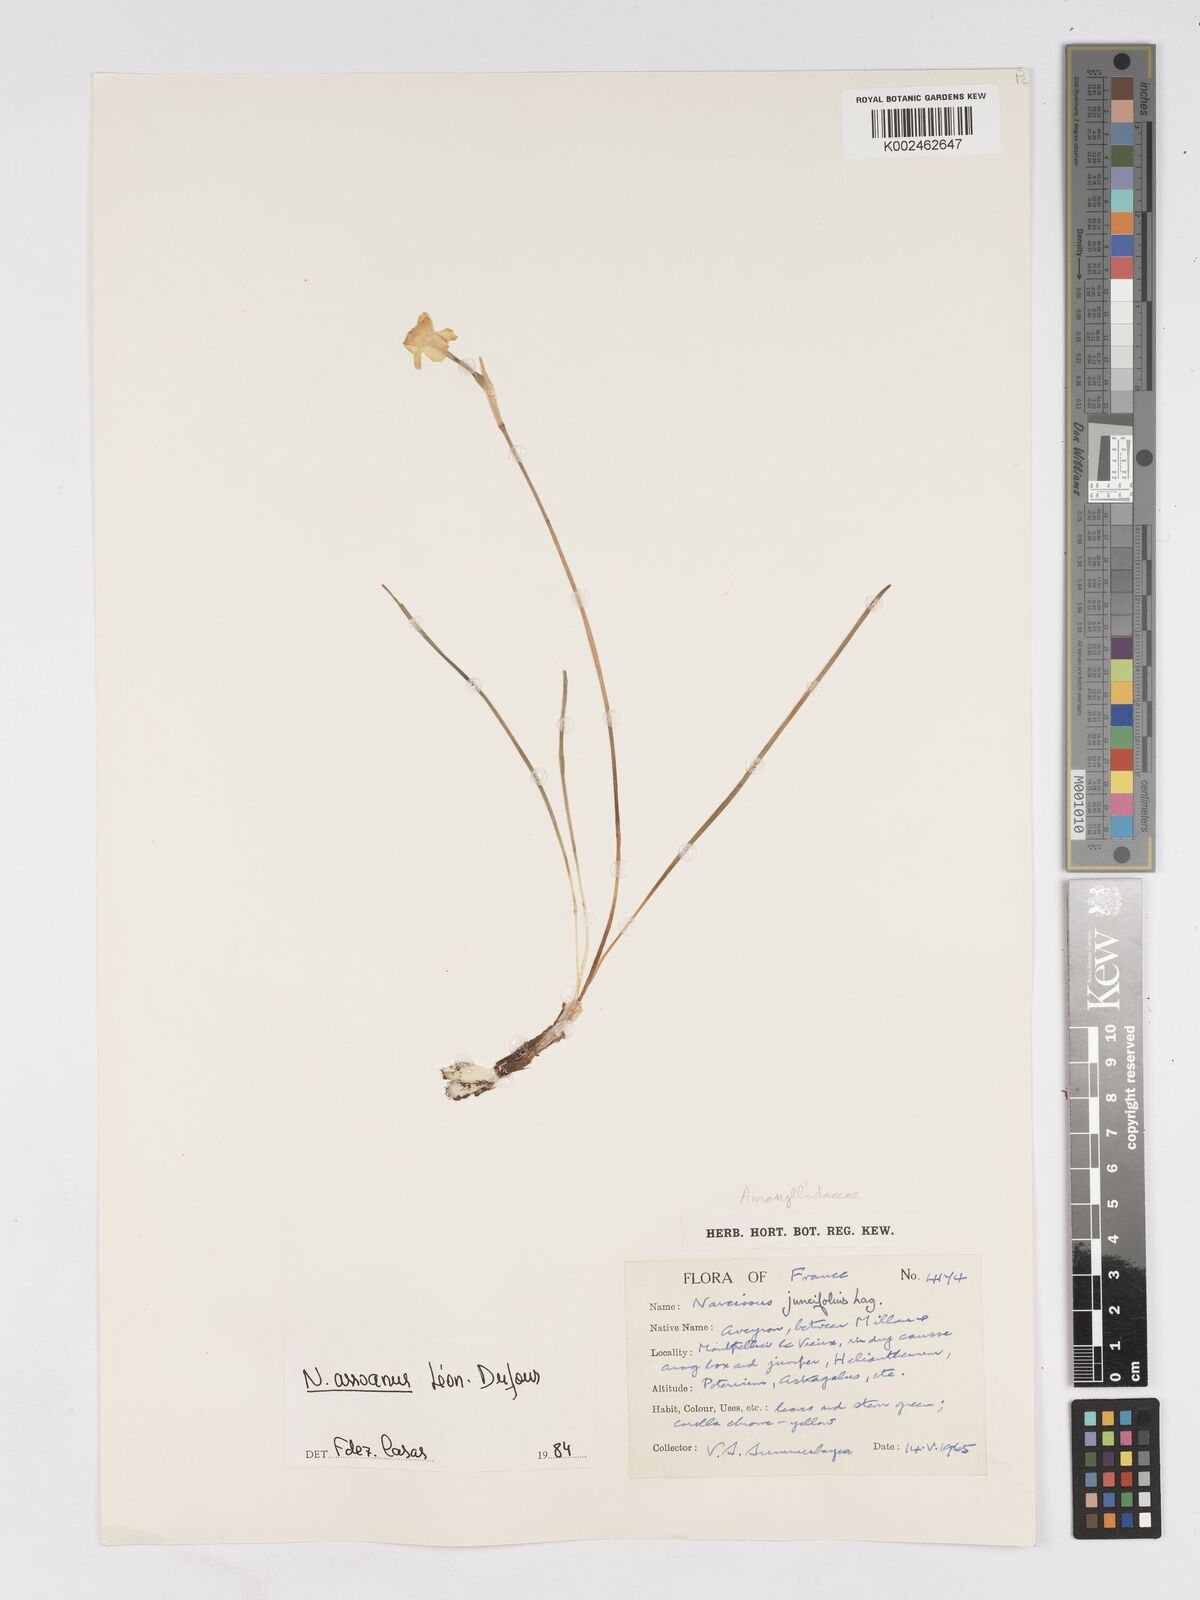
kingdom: Plantae
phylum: Tracheophyta
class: Liliopsida
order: Asparagales
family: Amaryllidaceae
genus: Narcissus
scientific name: Narcissus assoanus
